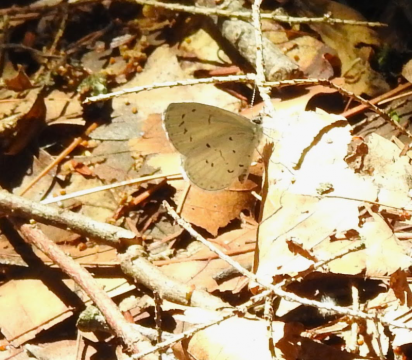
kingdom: Animalia
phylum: Arthropoda
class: Insecta
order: Lepidoptera
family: Lycaenidae
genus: Cyaniris
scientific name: Cyaniris neglecta
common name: Summer Azure
